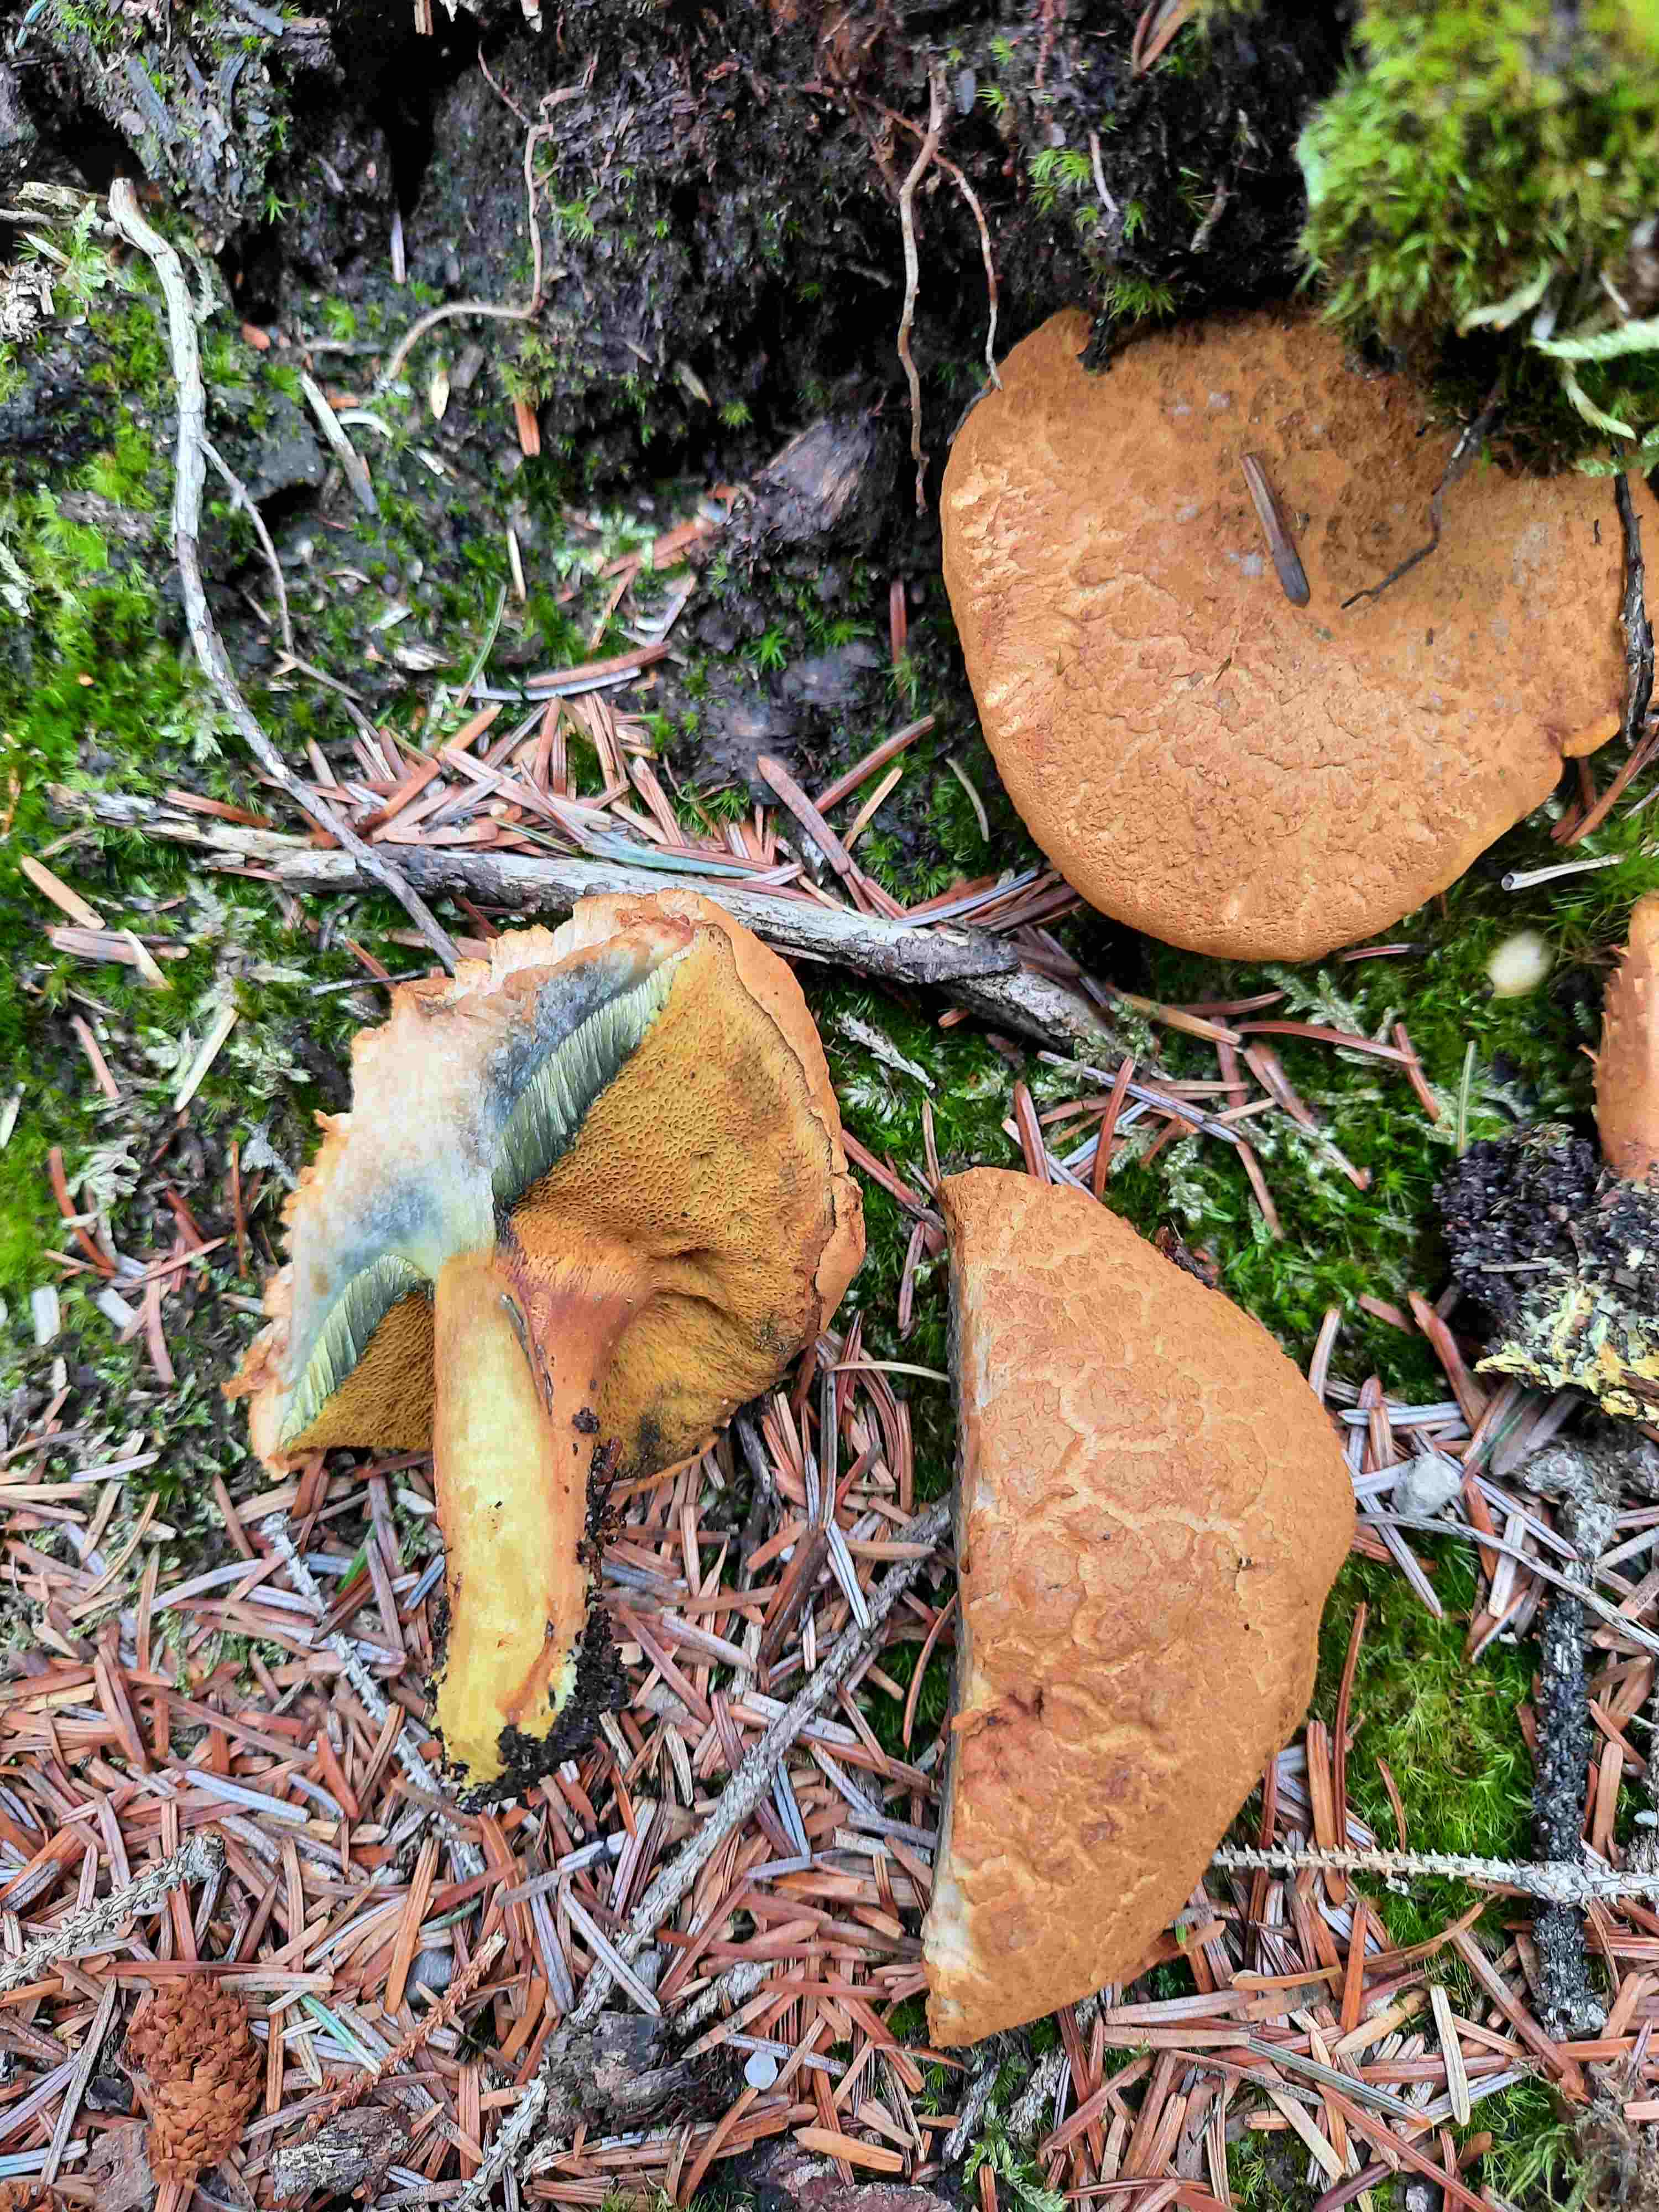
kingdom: Fungi
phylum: Basidiomycota
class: Agaricomycetes
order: Boletales
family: Boletaceae
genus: Buchwaldoboletus
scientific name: Buchwaldoboletus lignicola
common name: stødrørhat
